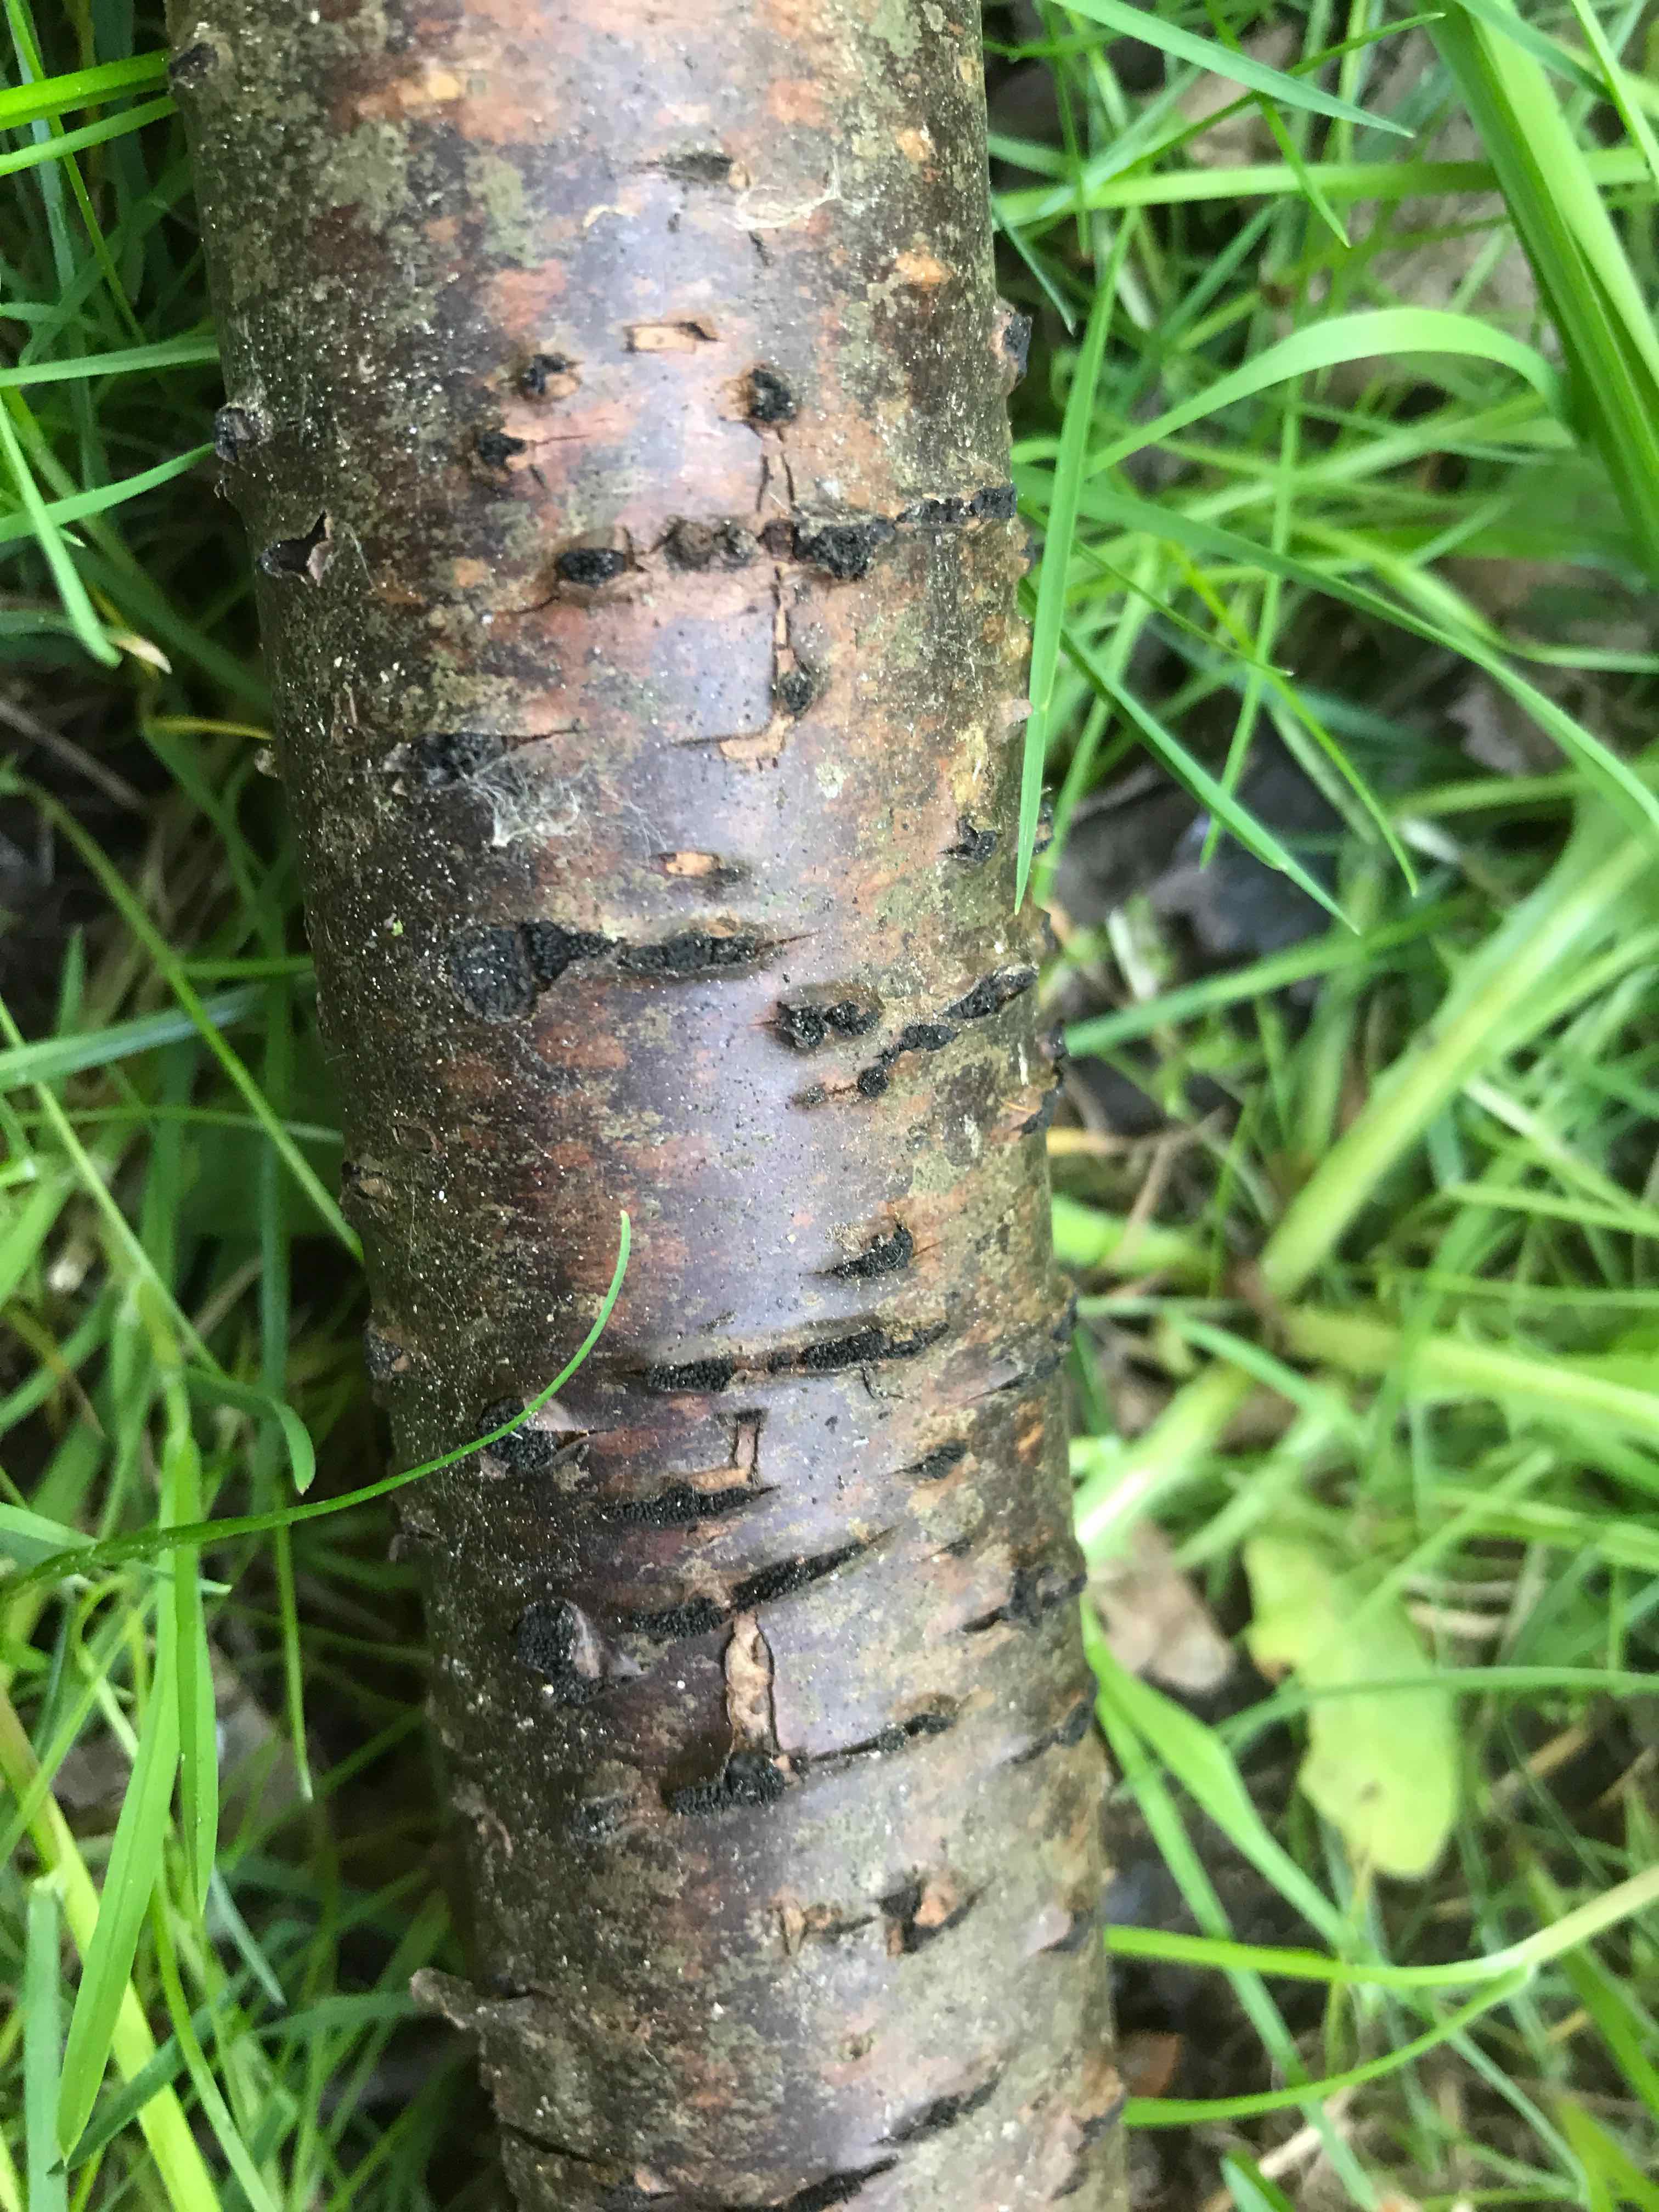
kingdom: Fungi
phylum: Ascomycota
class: Sordariomycetes
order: Xylariales
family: Diatrypaceae
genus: Eutypella
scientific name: Eutypella prunastri
